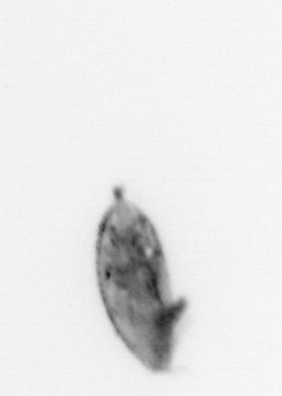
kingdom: Animalia
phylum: Arthropoda
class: Maxillopoda
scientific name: Maxillopoda
